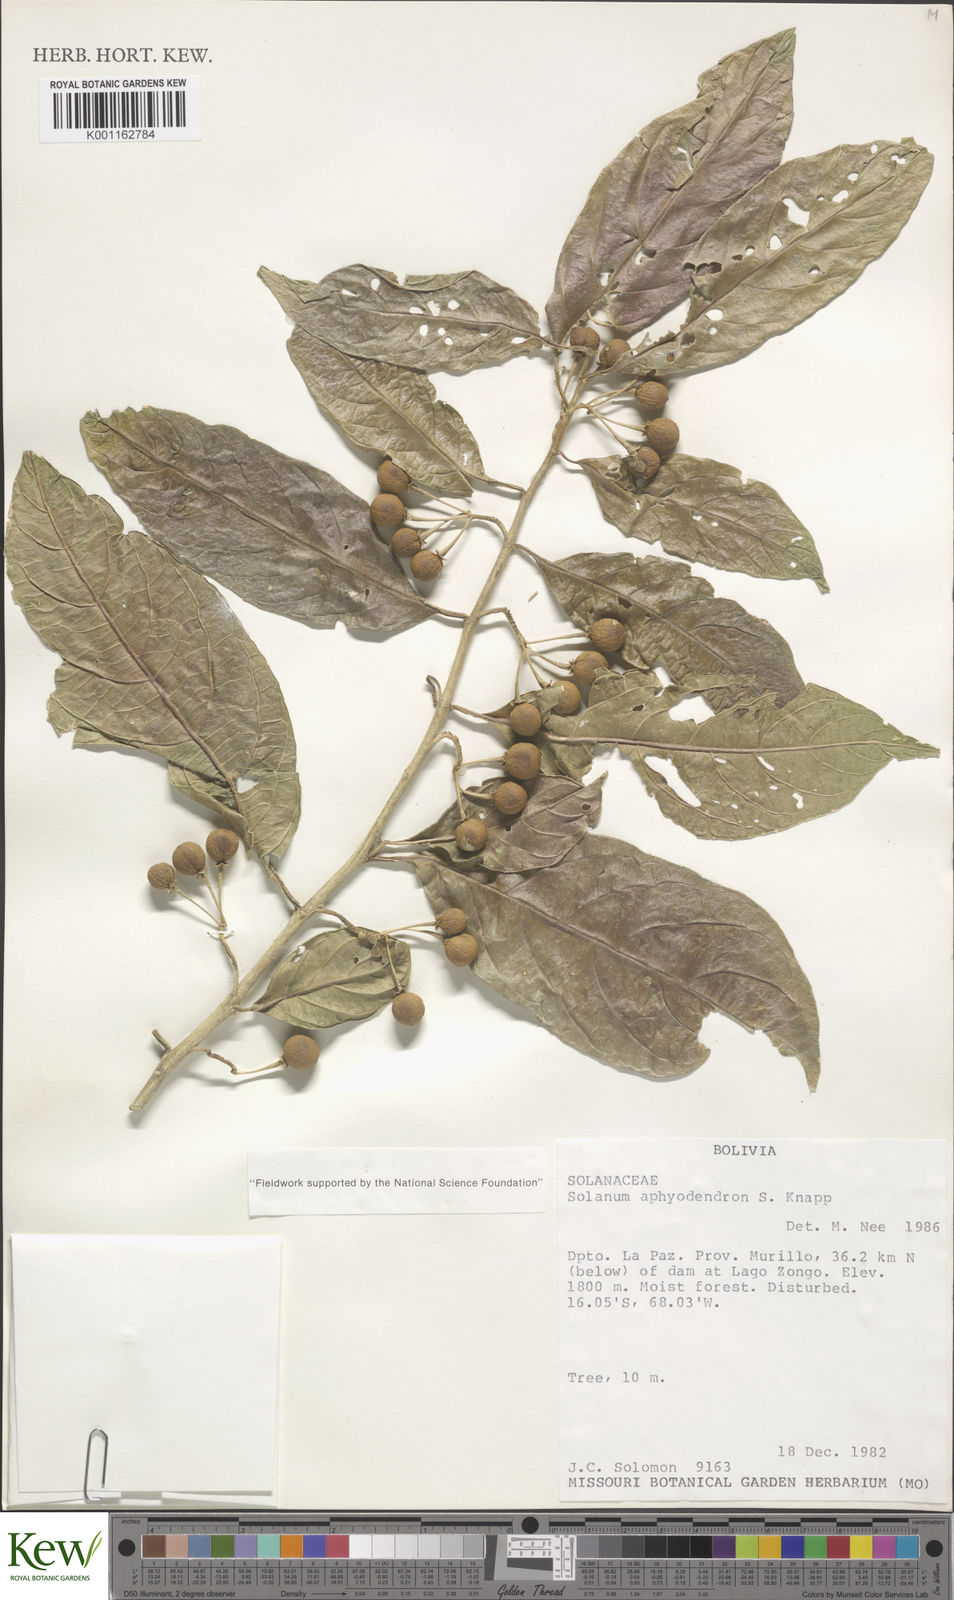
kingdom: Plantae
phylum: Tracheophyta
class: Magnoliopsida
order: Solanales
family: Solanaceae
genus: Solanum
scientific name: Solanum aphyodendron
